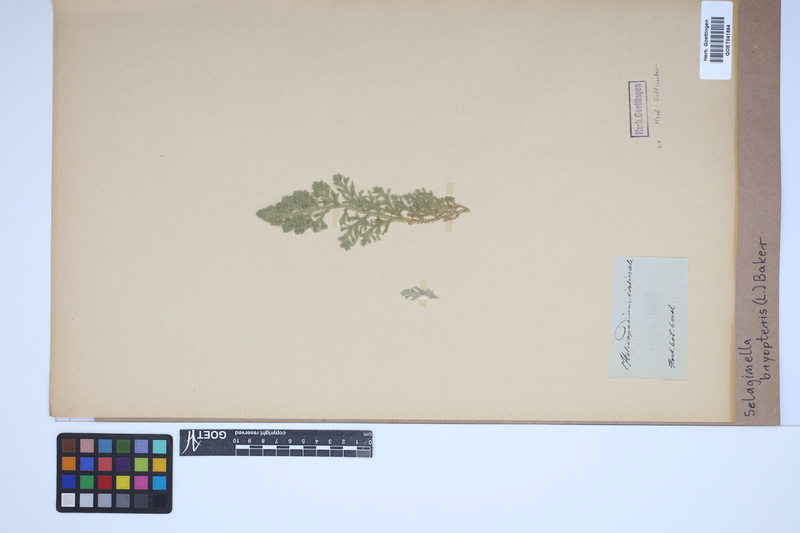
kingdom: Plantae
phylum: Tracheophyta
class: Lycopodiopsida
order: Selaginellales
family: Selaginellaceae
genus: Selaginella
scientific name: Selaginella bryopteris
